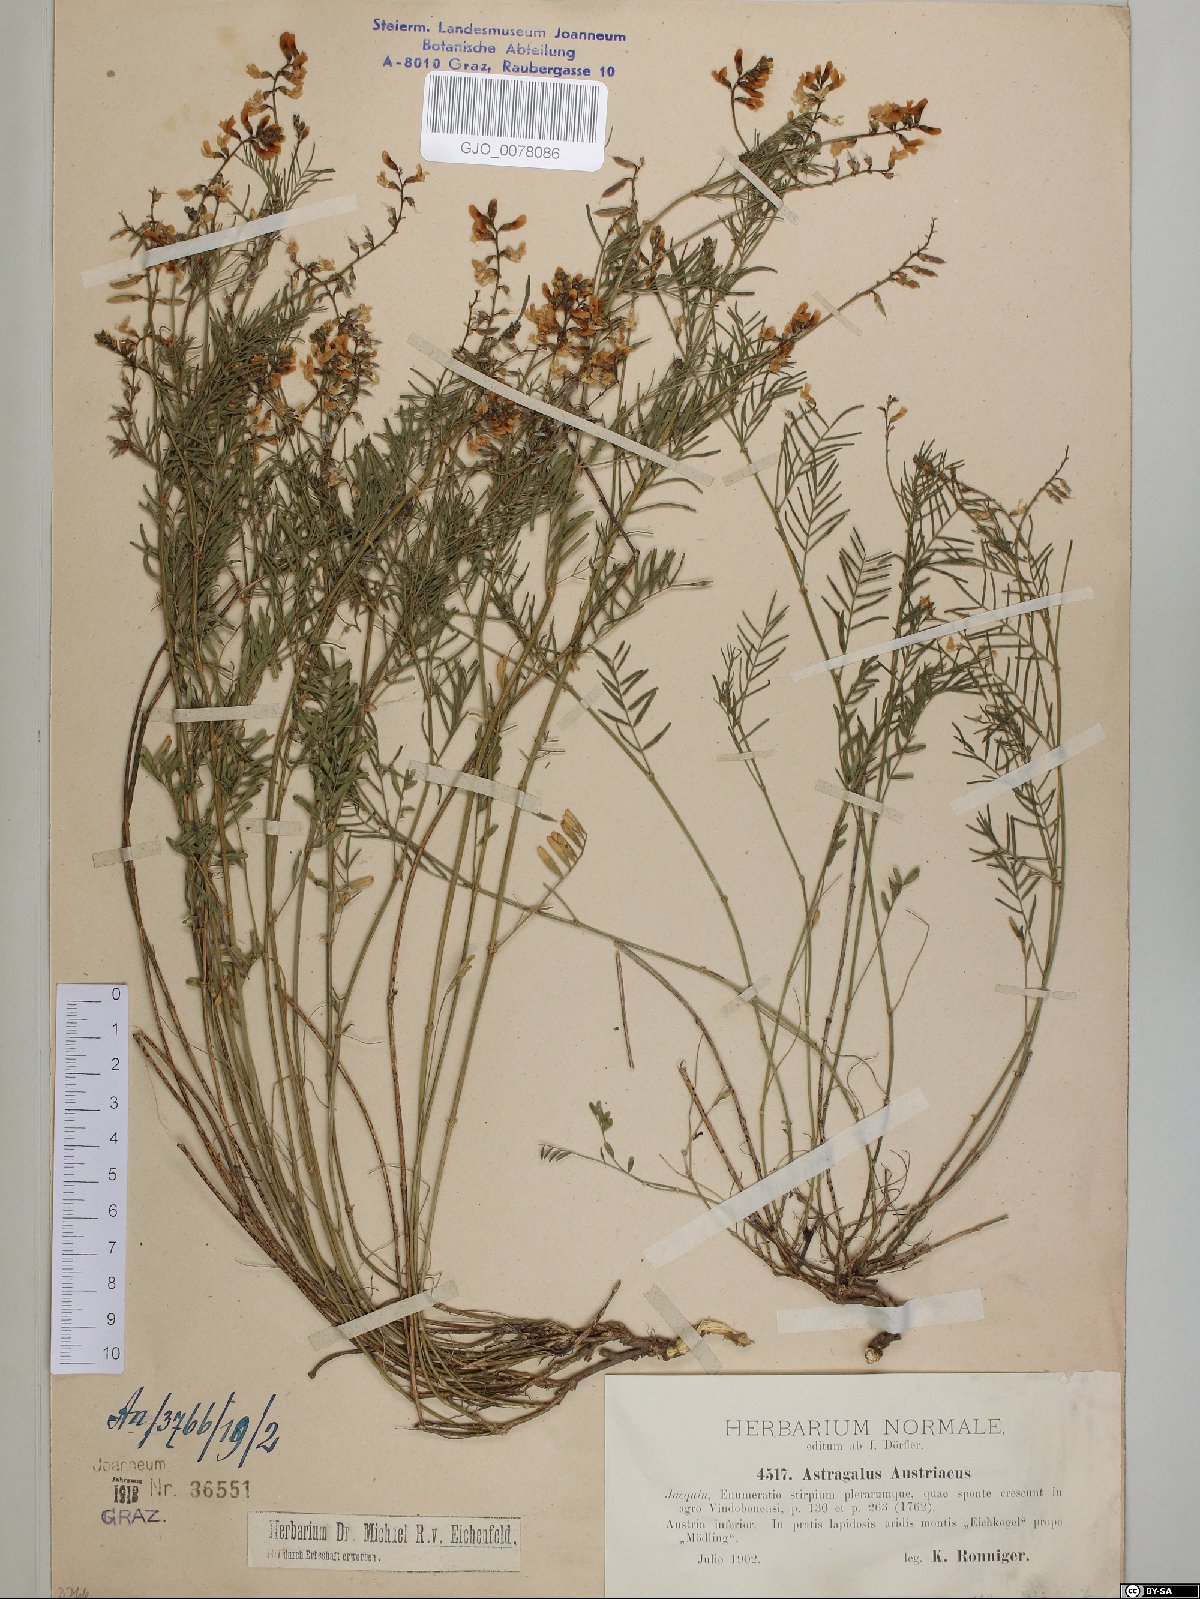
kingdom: Plantae
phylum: Tracheophyta
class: Magnoliopsida
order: Fabales
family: Fabaceae
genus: Astragalus
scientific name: Astragalus austriacus
